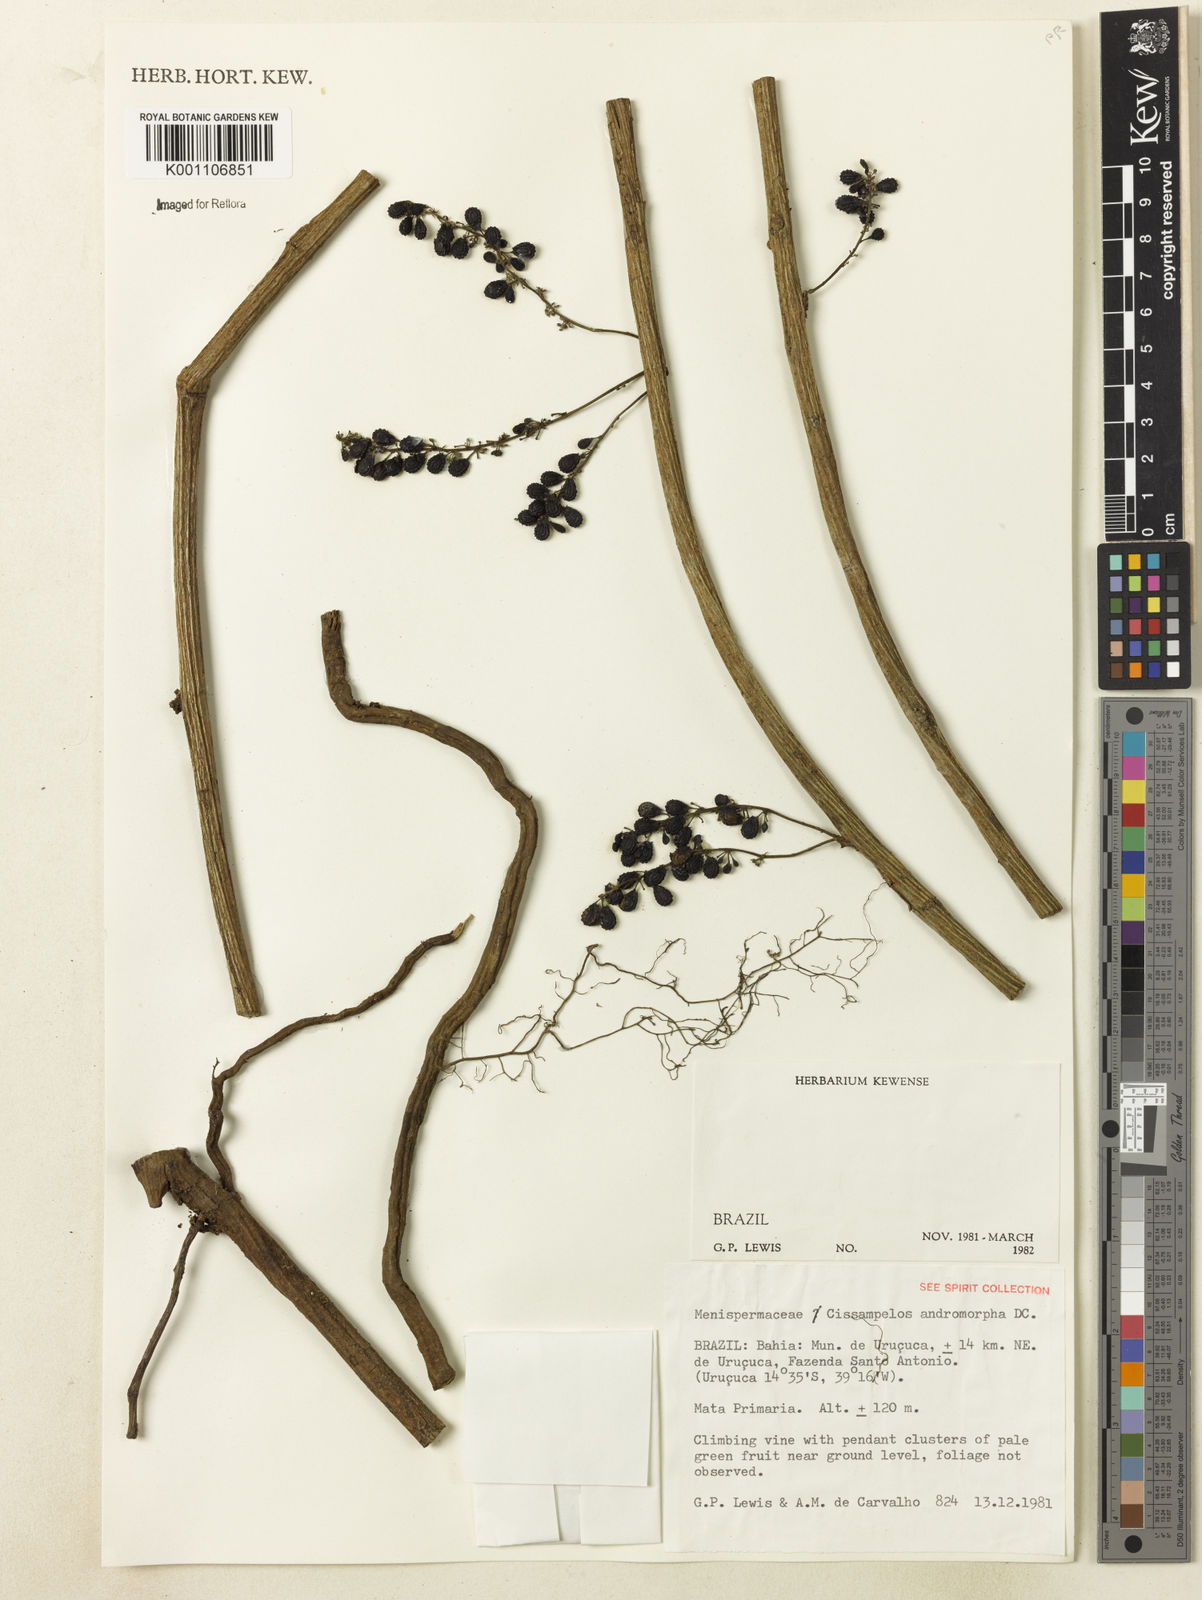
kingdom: Plantae
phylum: Tracheophyta
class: Magnoliopsida
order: Ranunculales
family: Menispermaceae
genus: Cissampelos
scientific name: Cissampelos andromorpha
